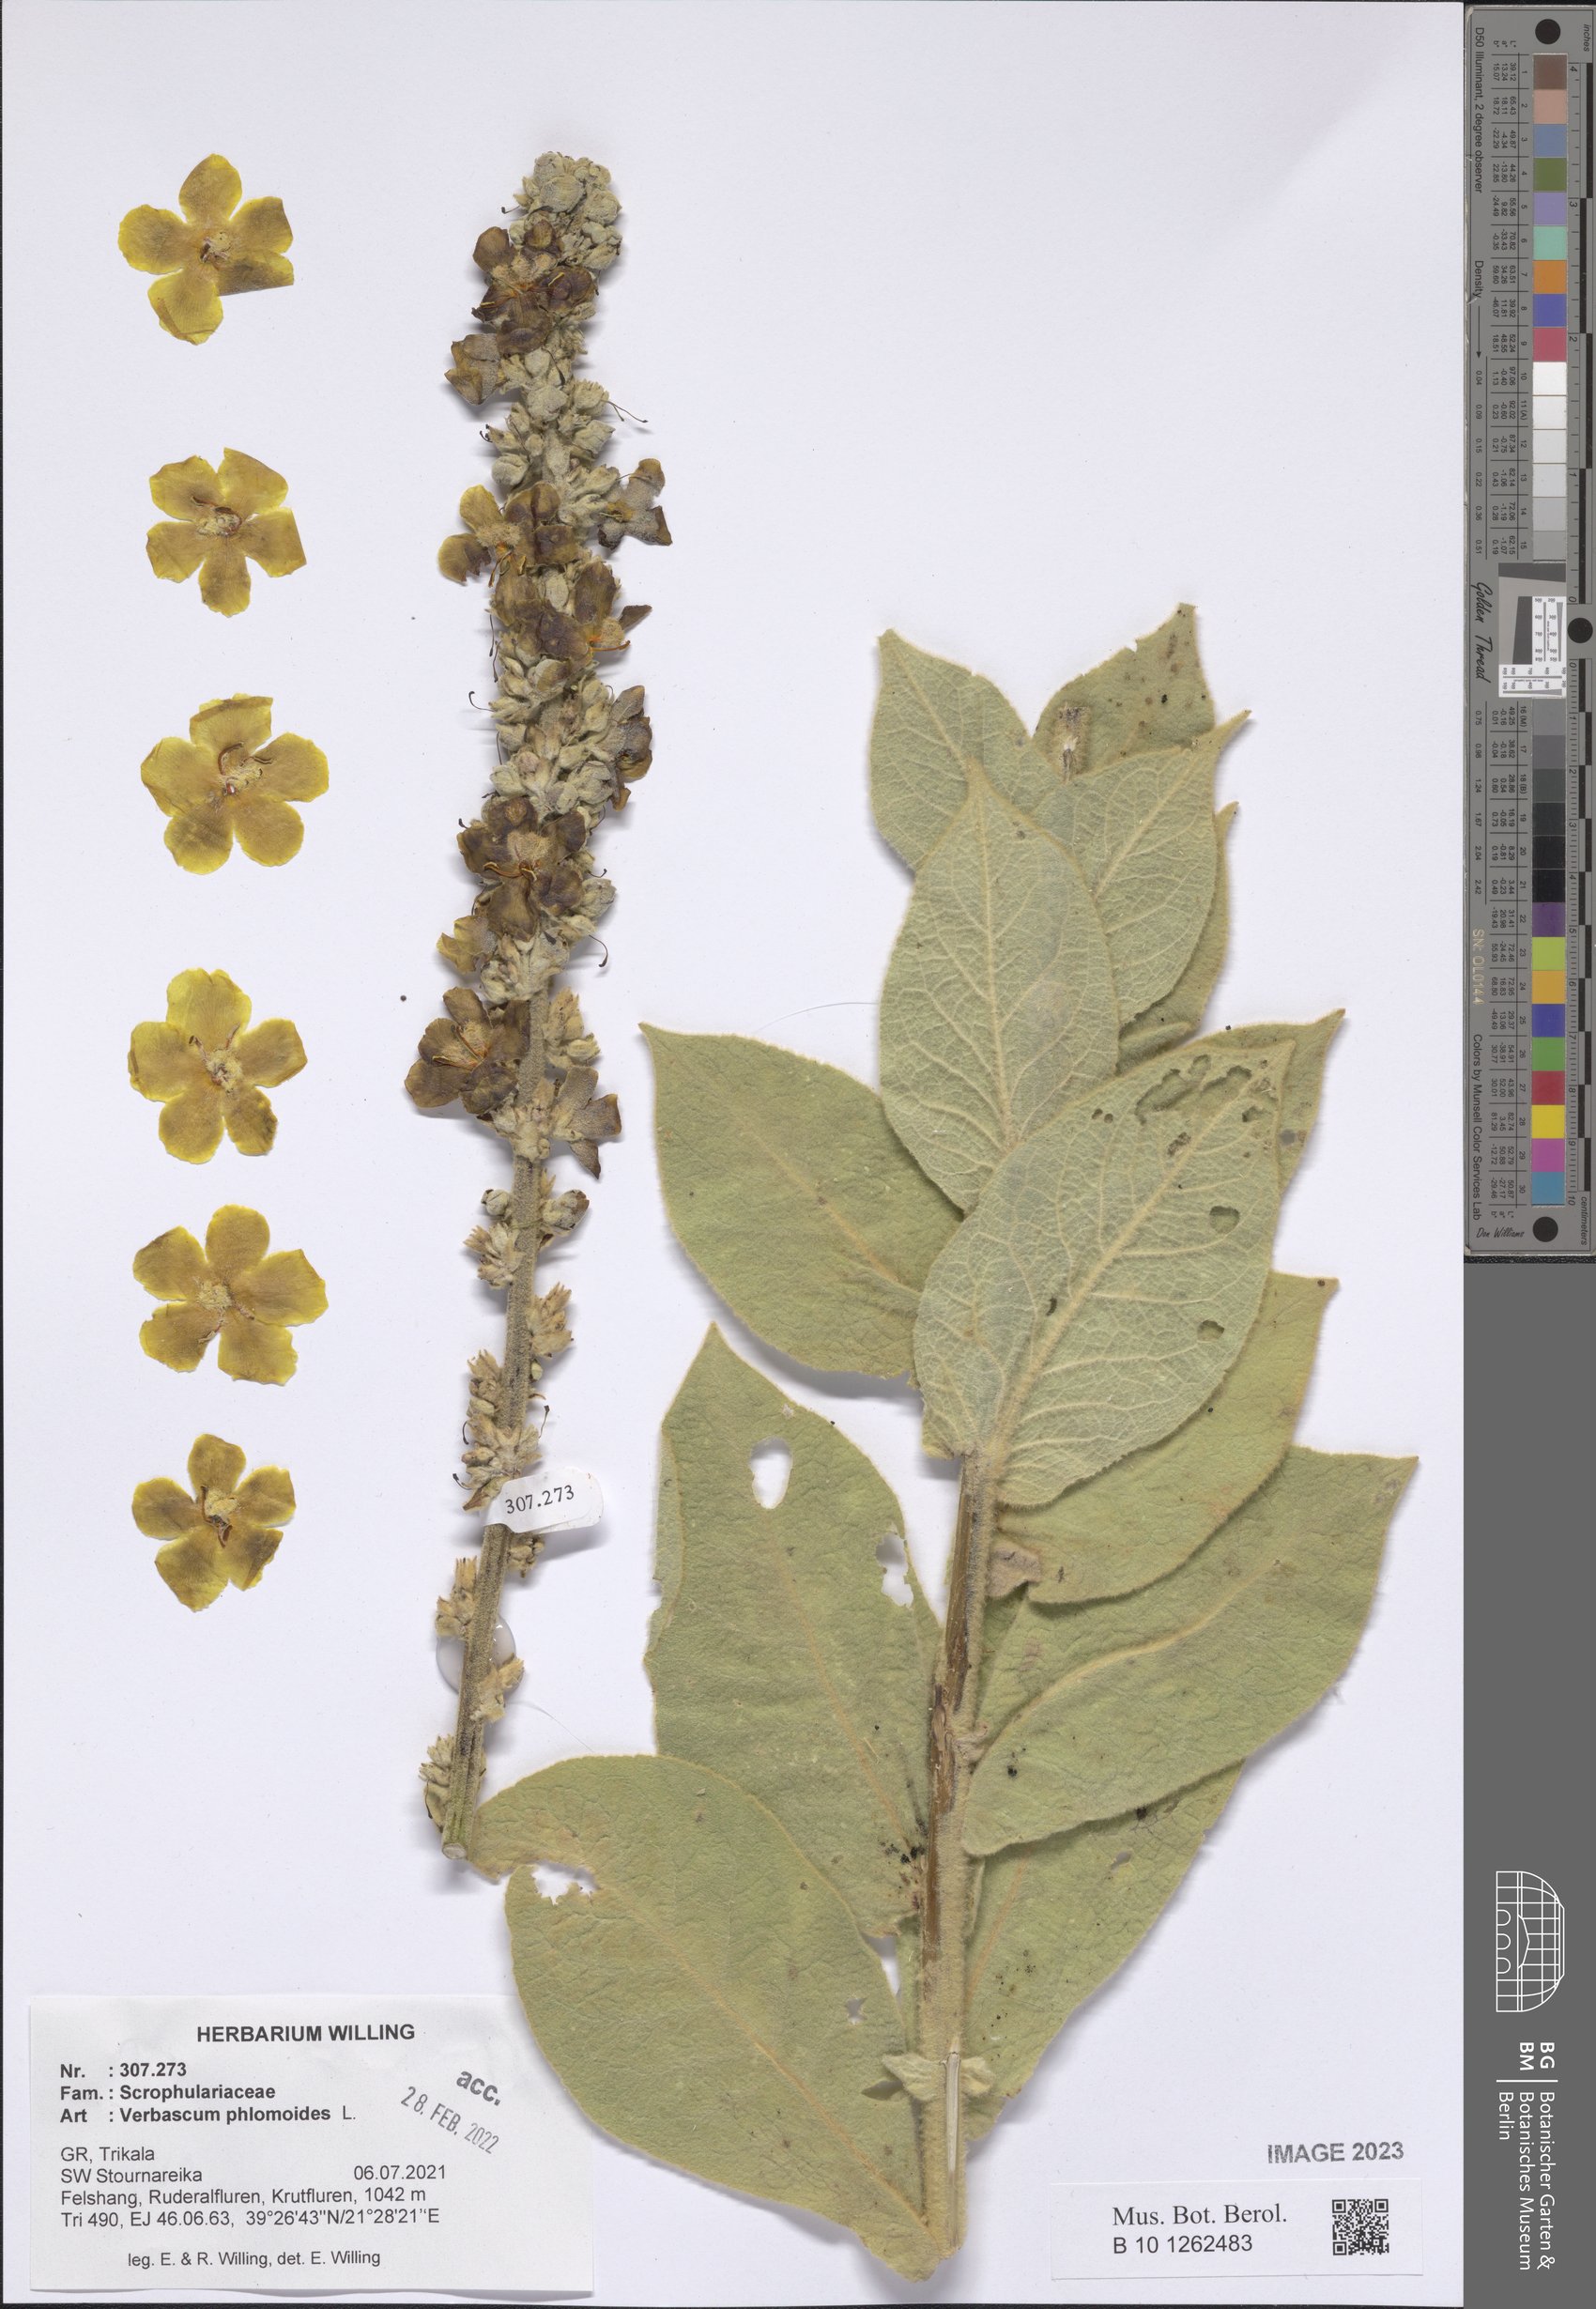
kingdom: Plantae
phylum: Tracheophyta
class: Magnoliopsida
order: Lamiales
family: Scrophulariaceae
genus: Verbascum
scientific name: Verbascum phlomoides
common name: Orange mullein
